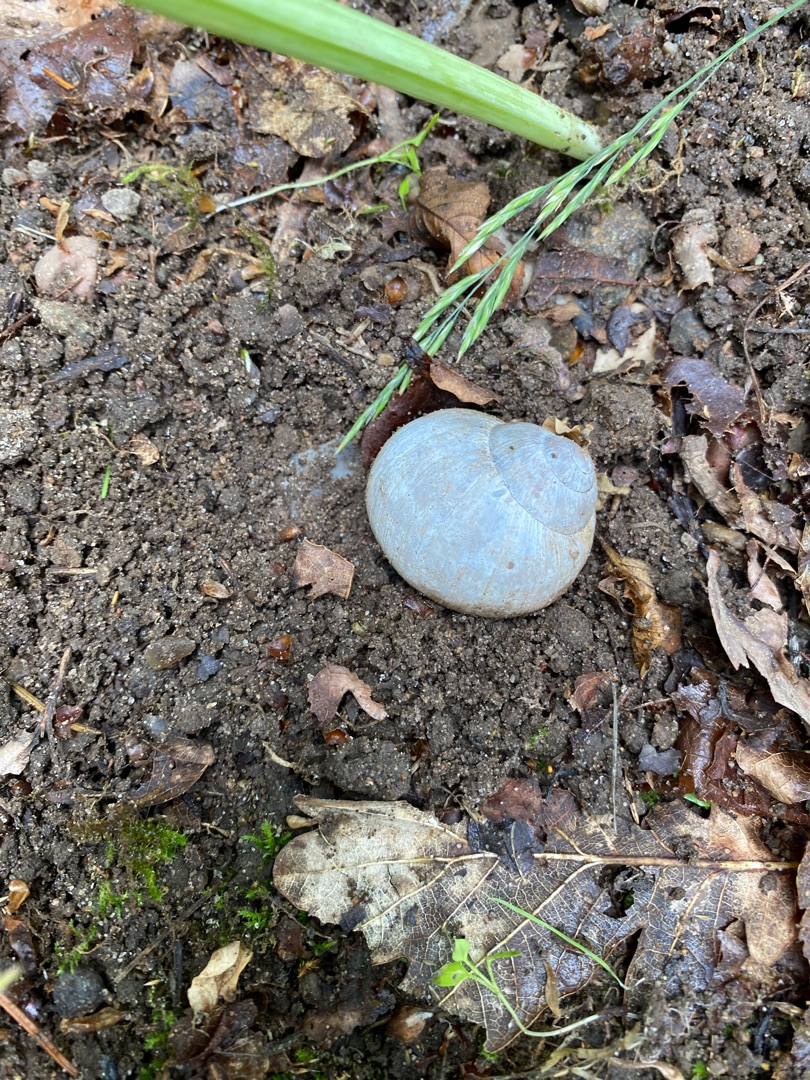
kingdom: Animalia
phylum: Mollusca
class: Gastropoda
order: Stylommatophora
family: Helicidae
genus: Helix
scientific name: Helix pomatia
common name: Vinbjergsnegl
